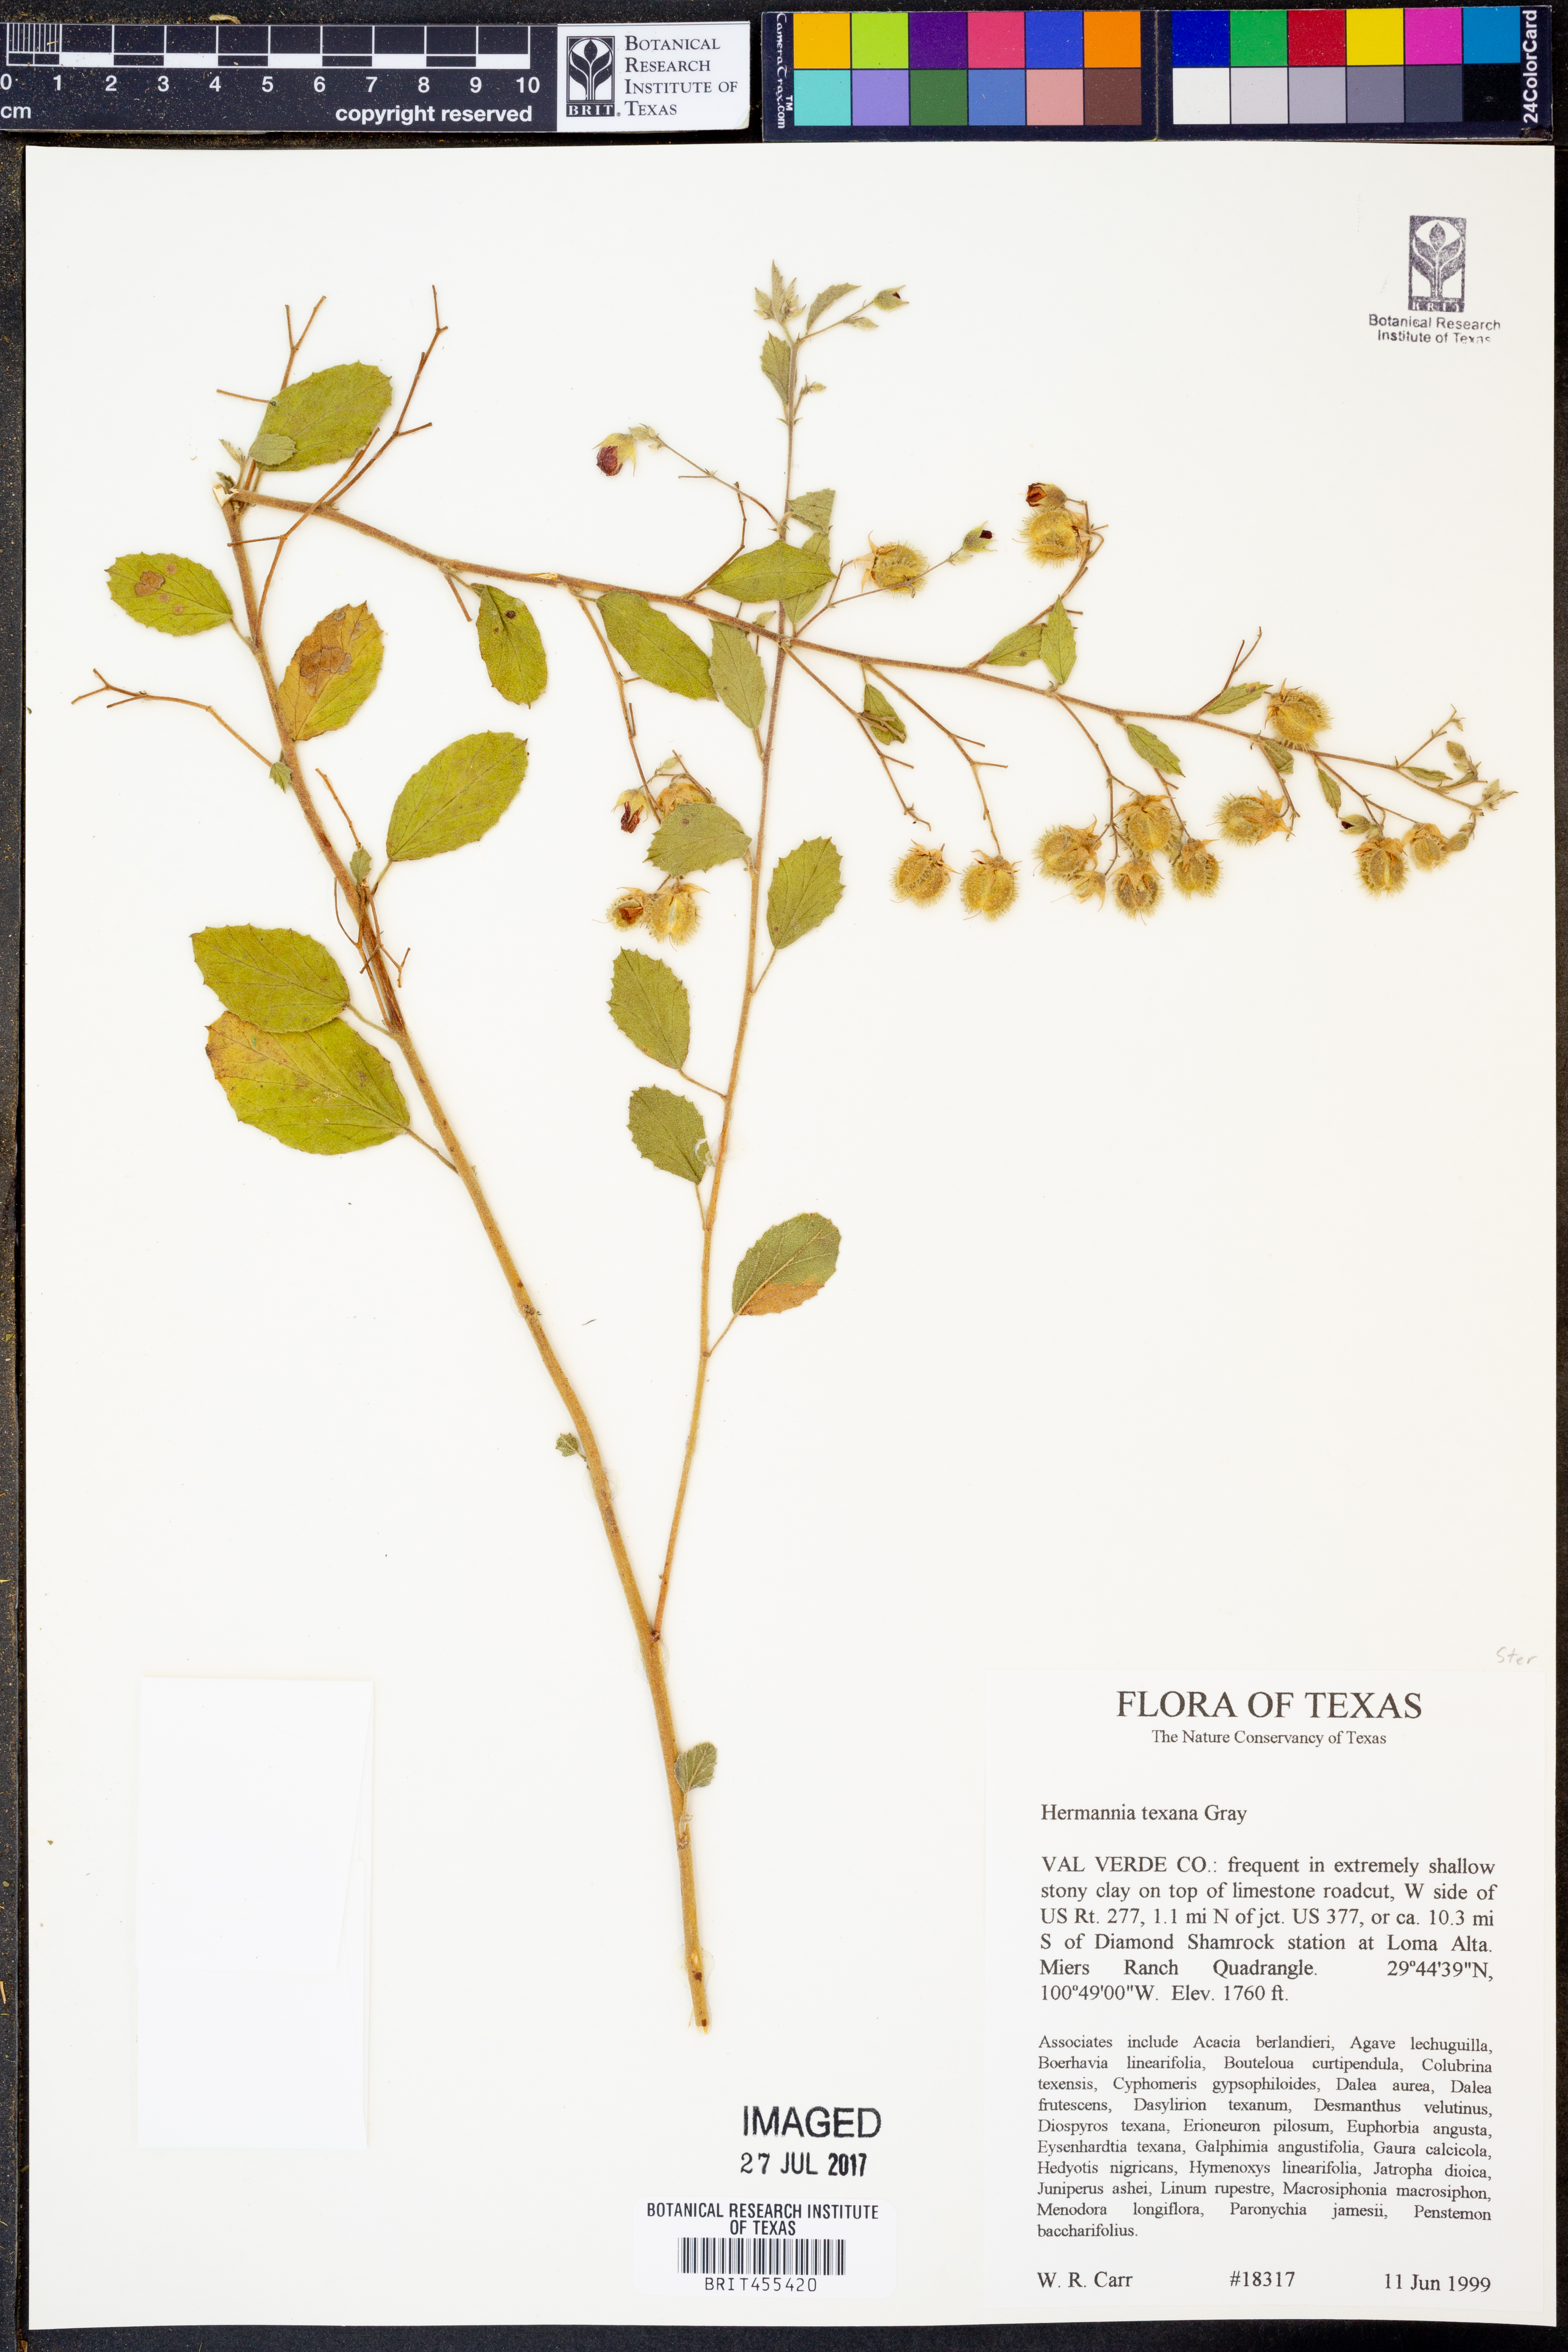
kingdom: Plantae
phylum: Tracheophyta
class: Magnoliopsida
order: Malvales
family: Malvaceae
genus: Hermannia
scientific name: Hermannia texana
